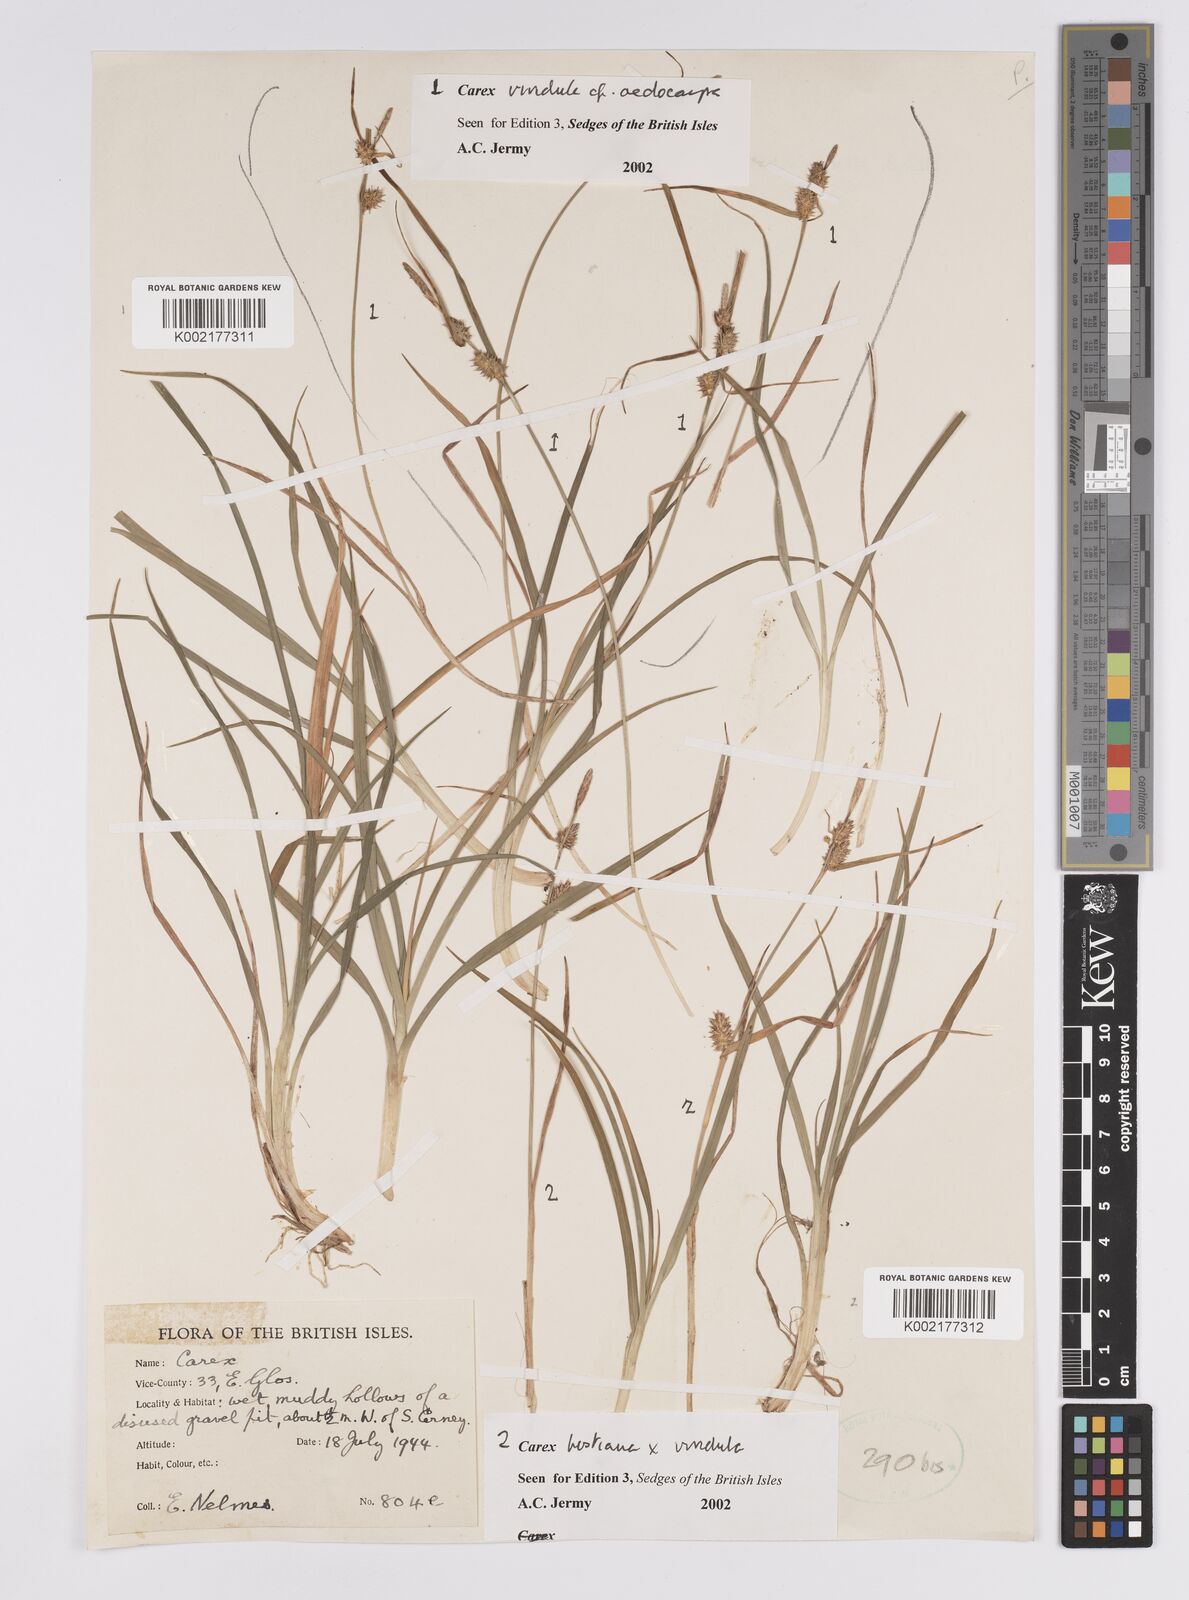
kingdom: Plantae
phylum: Tracheophyta
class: Liliopsida
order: Poales
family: Cyperaceae
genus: Carex
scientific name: Carex hostiana
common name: Tawny sedge
